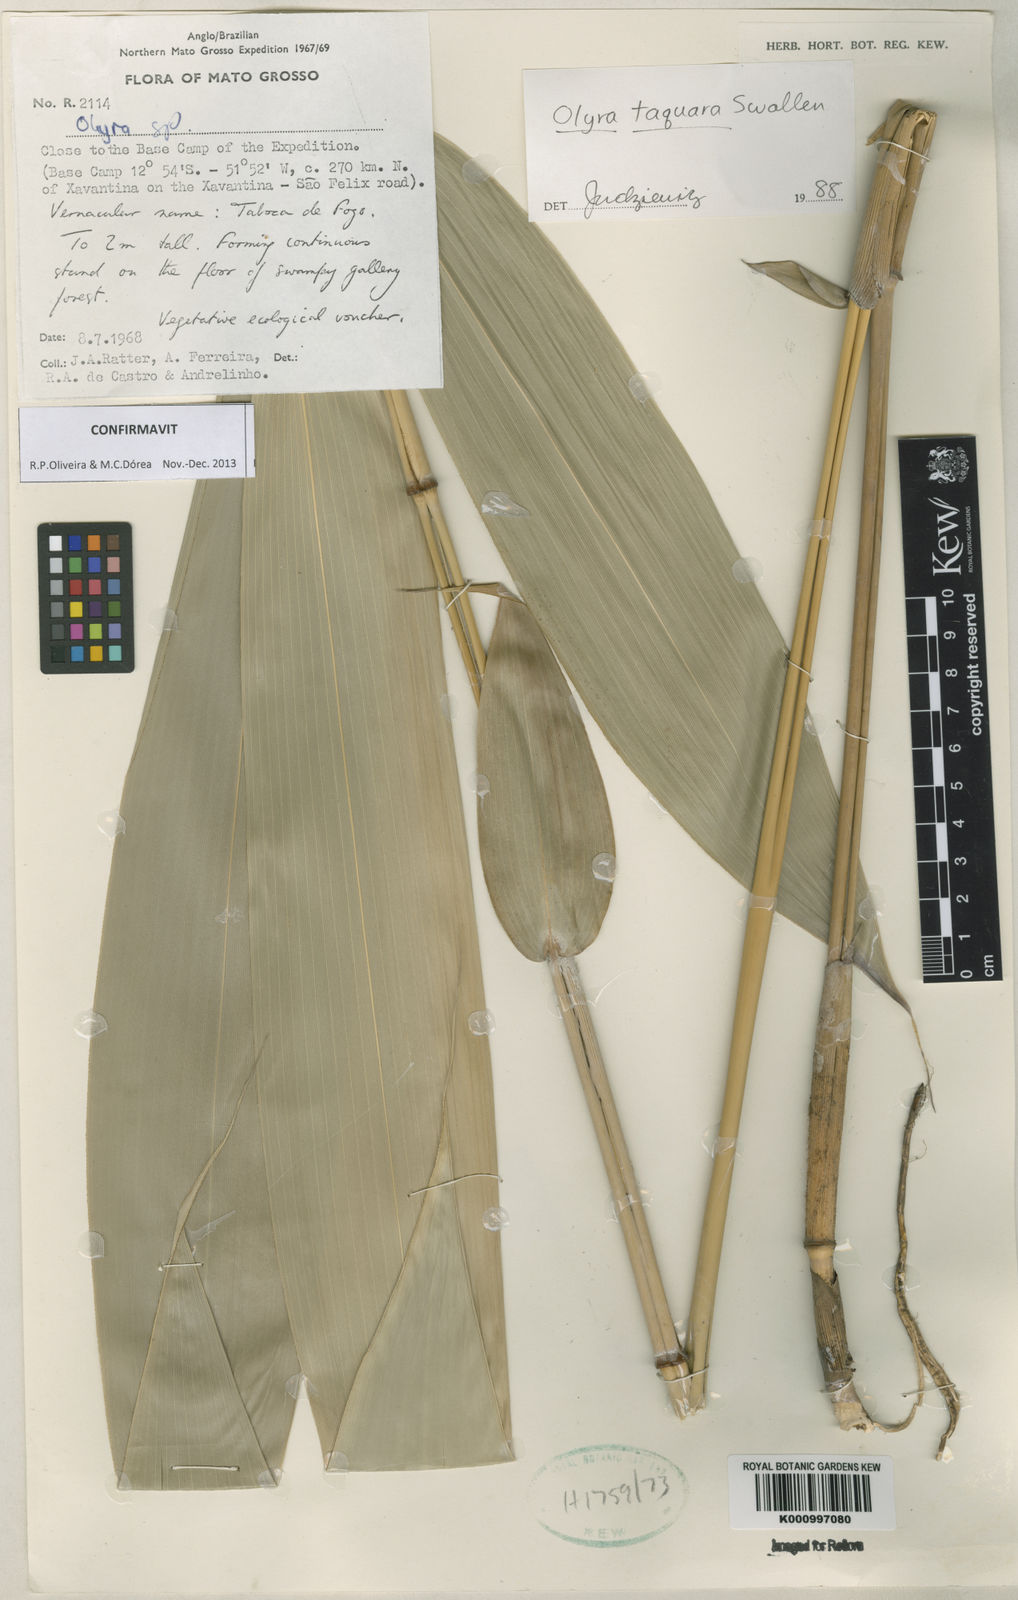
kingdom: Plantae
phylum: Tracheophyta
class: Liliopsida
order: Poales
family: Poaceae
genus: Olyra
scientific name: Olyra taquara
